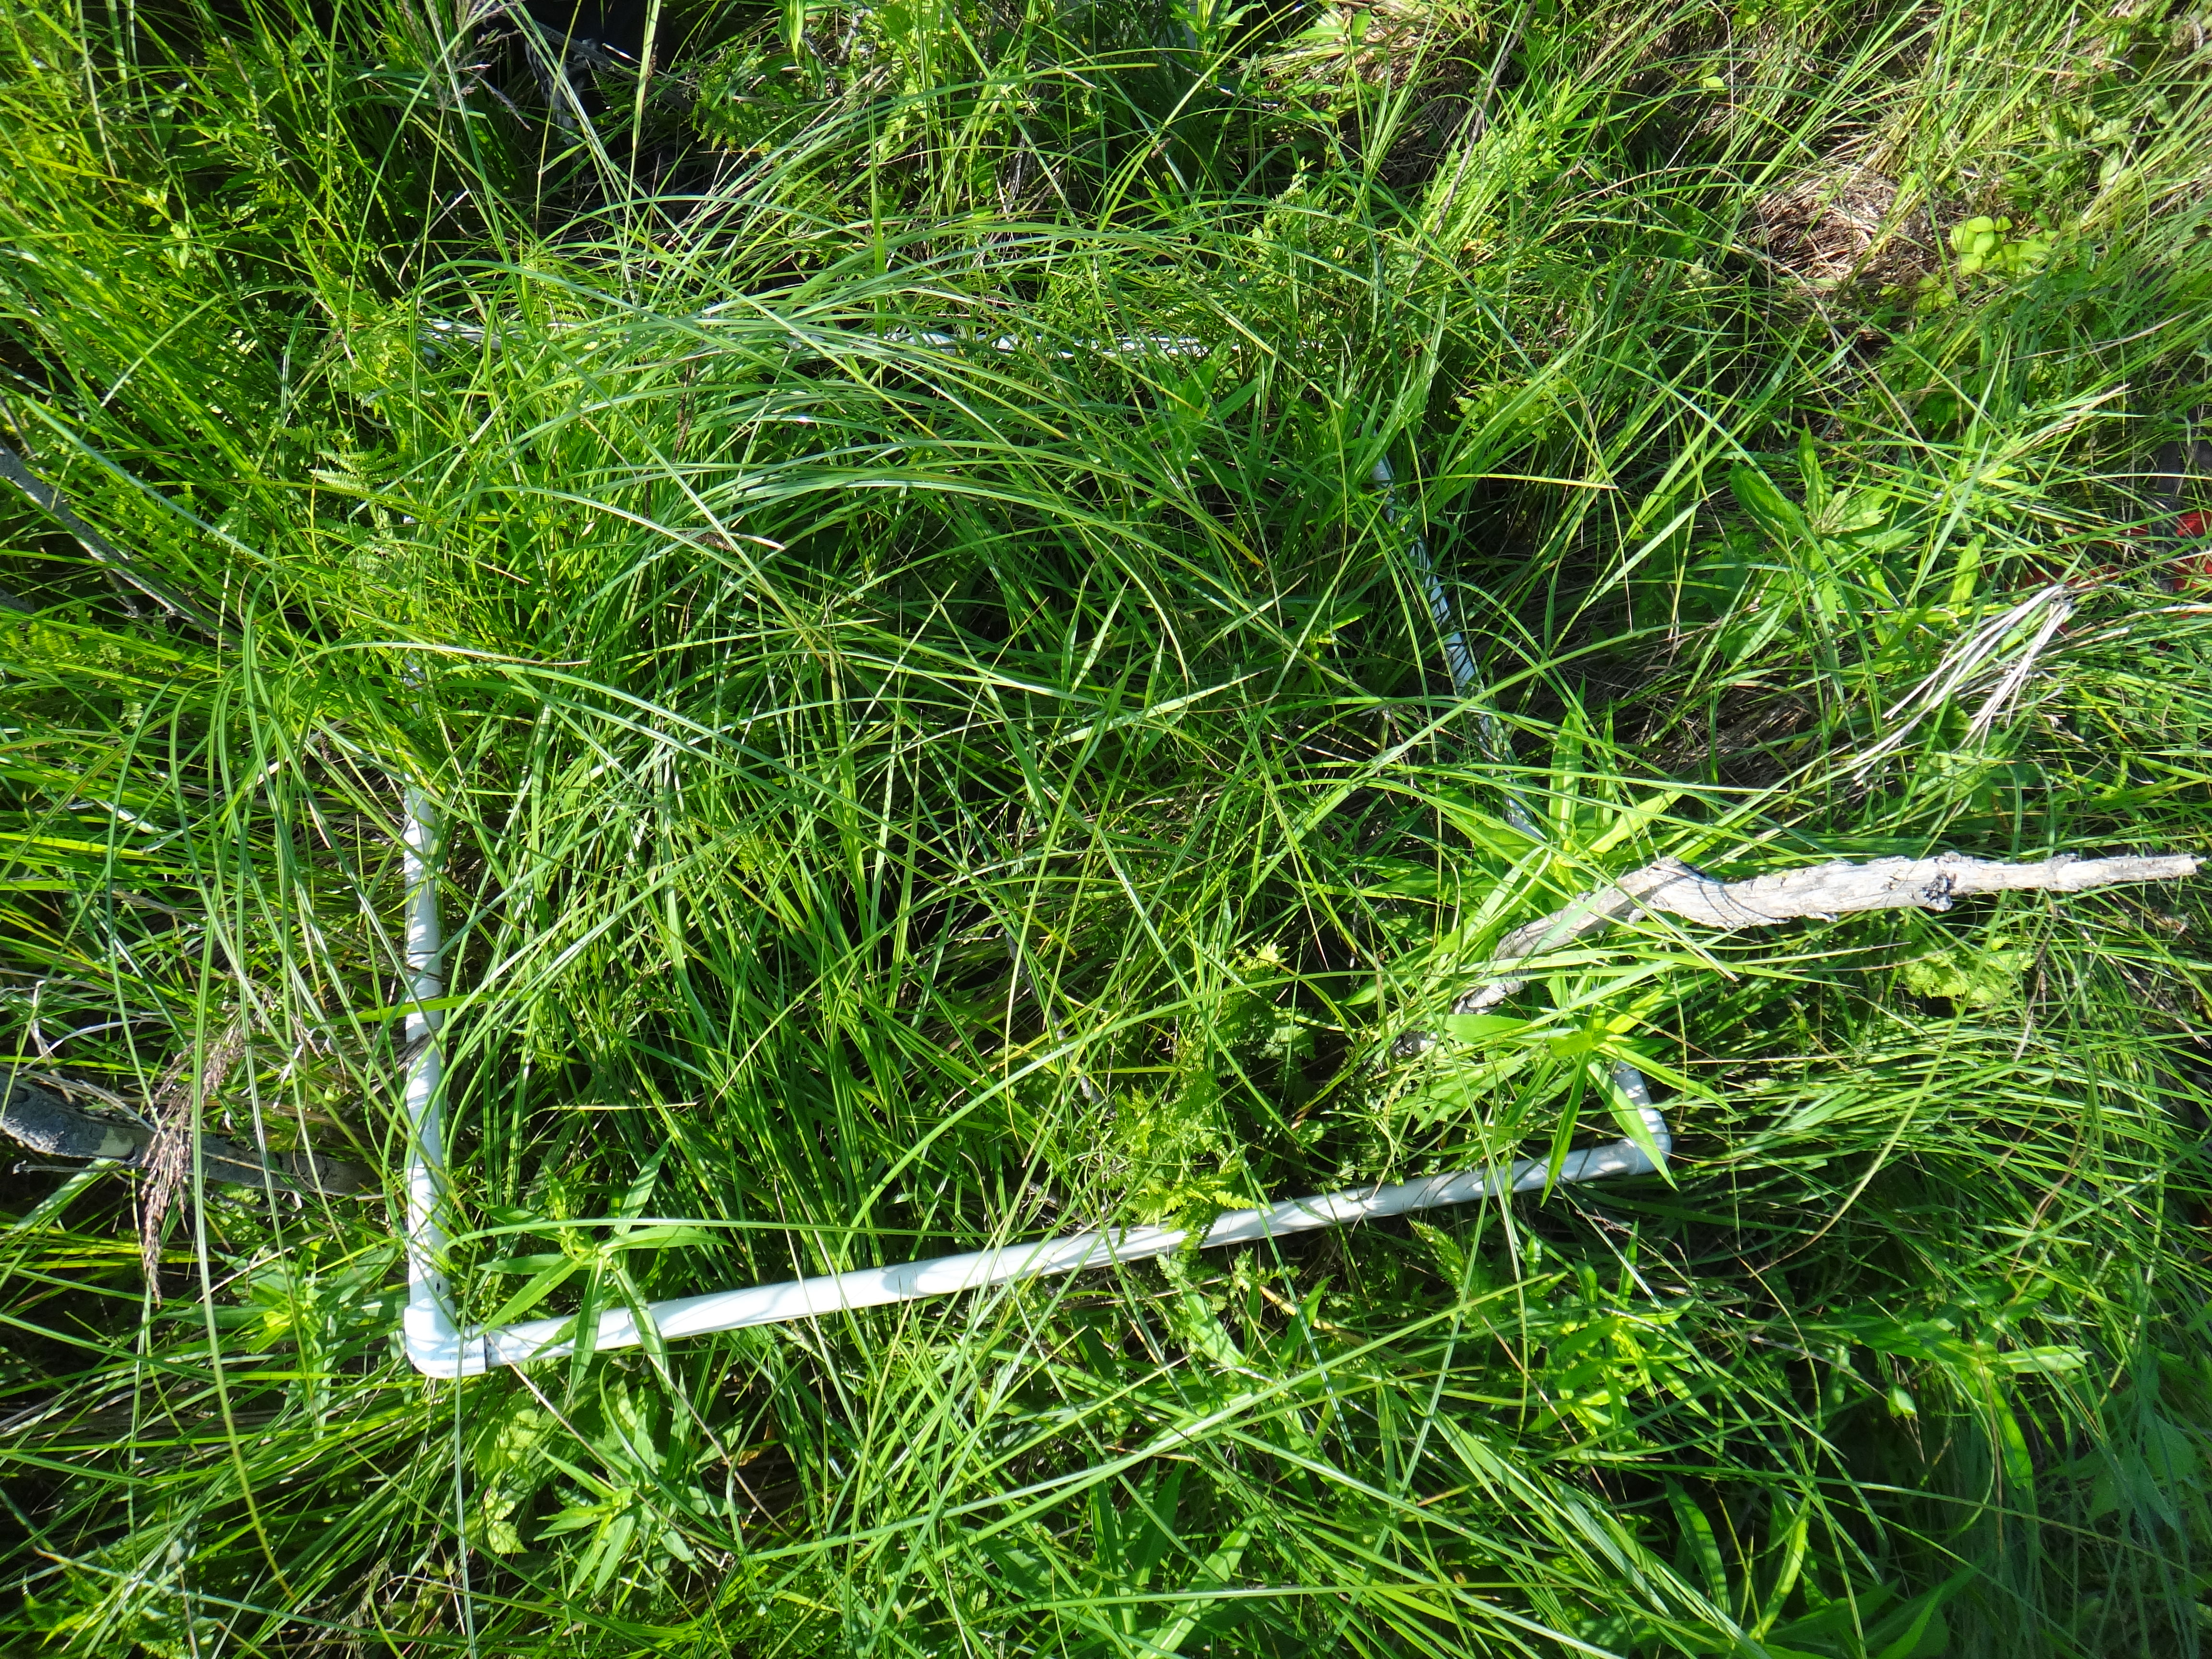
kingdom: Plantae
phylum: Tracheophyta
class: Magnoliopsida
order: Asterales
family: Asteraceae
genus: Solidago
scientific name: Solidago canadensis
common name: Canada goldenrod
